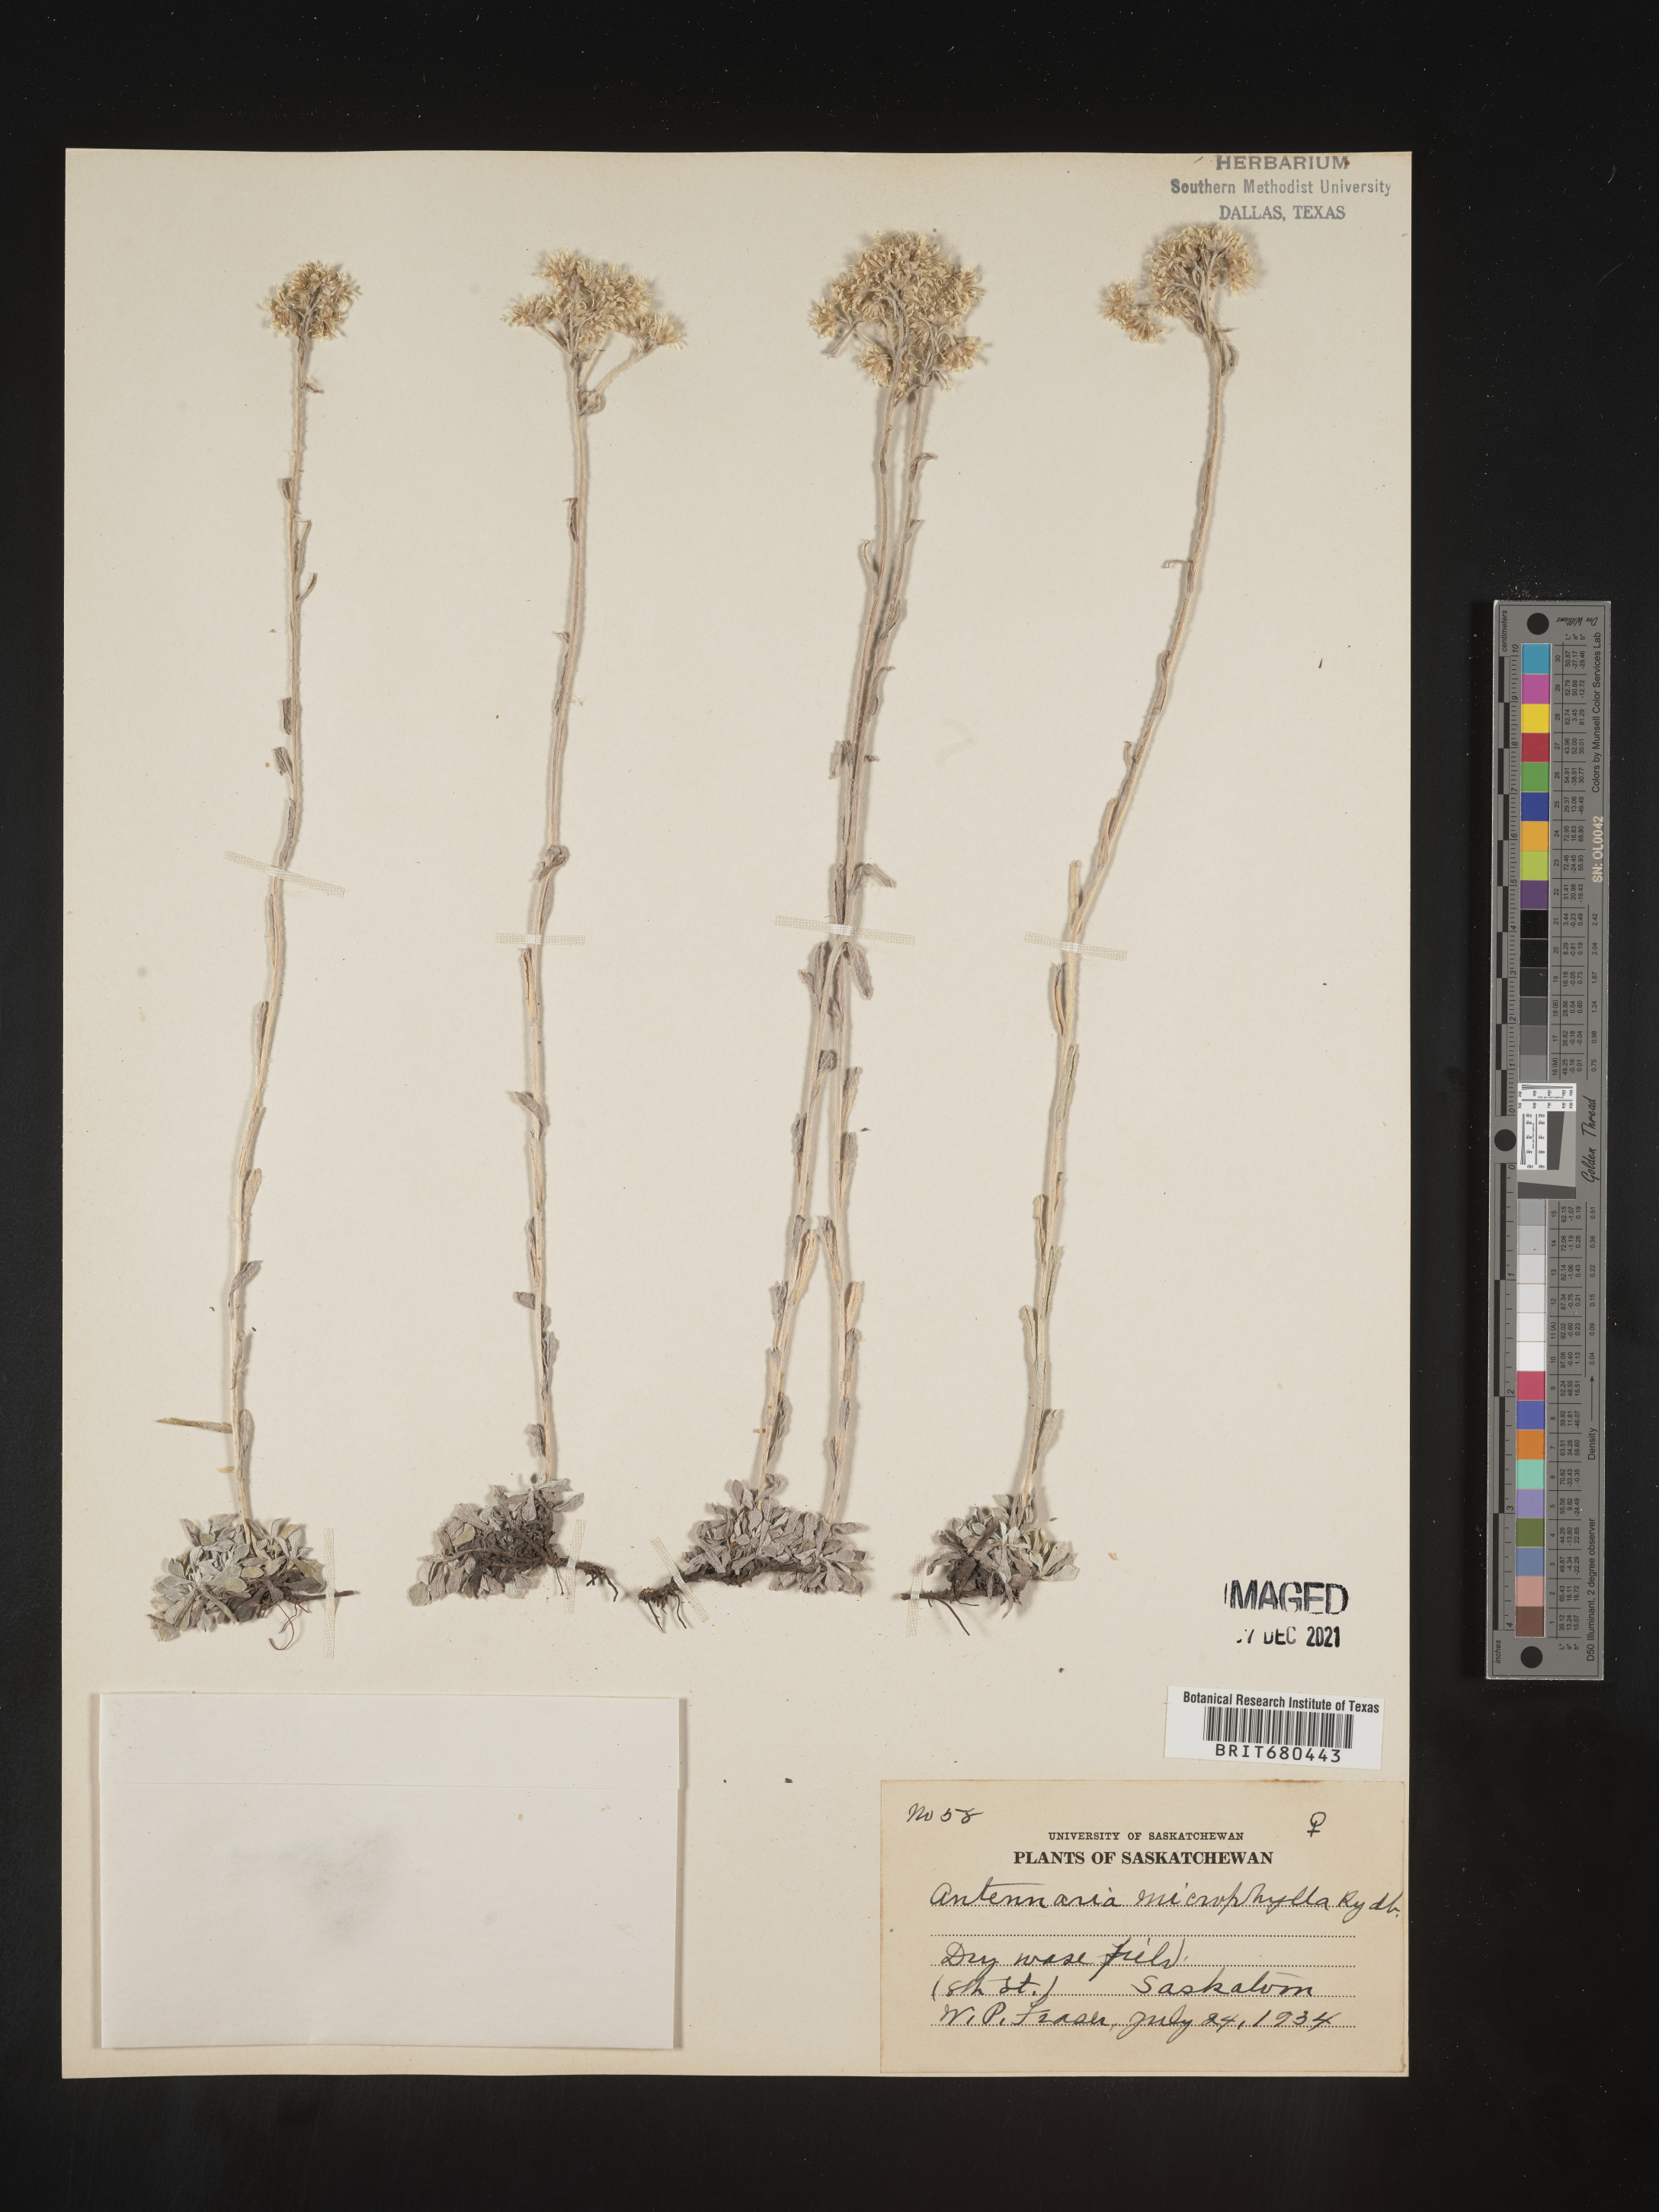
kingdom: Plantae
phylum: Tracheophyta
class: Magnoliopsida
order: Asterales
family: Asteraceae
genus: Antennaria
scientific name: Antennaria rosea
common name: Rosy pussytoes
